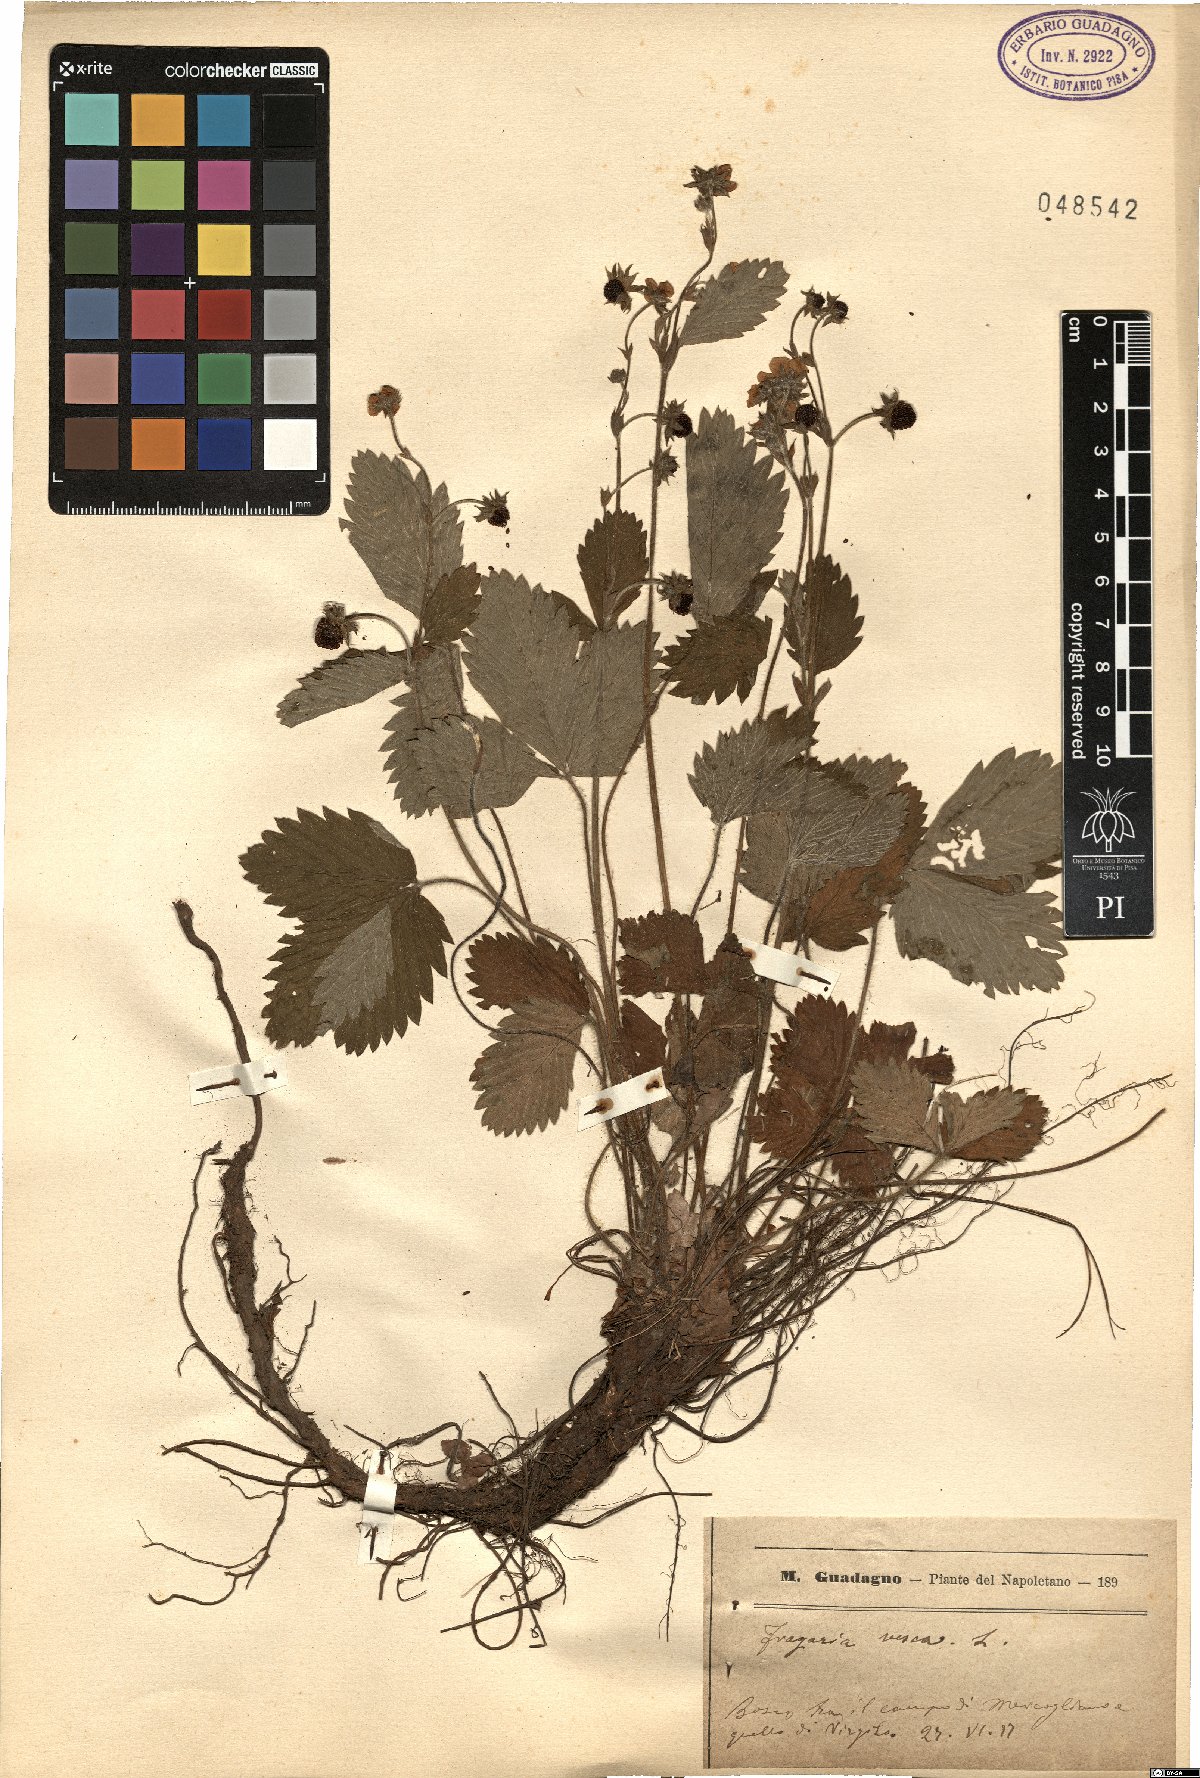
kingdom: Plantae
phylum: Tracheophyta
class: Magnoliopsida
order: Rosales
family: Rosaceae
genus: Fragaria
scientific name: Fragaria vesca
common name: Wild strawberry
